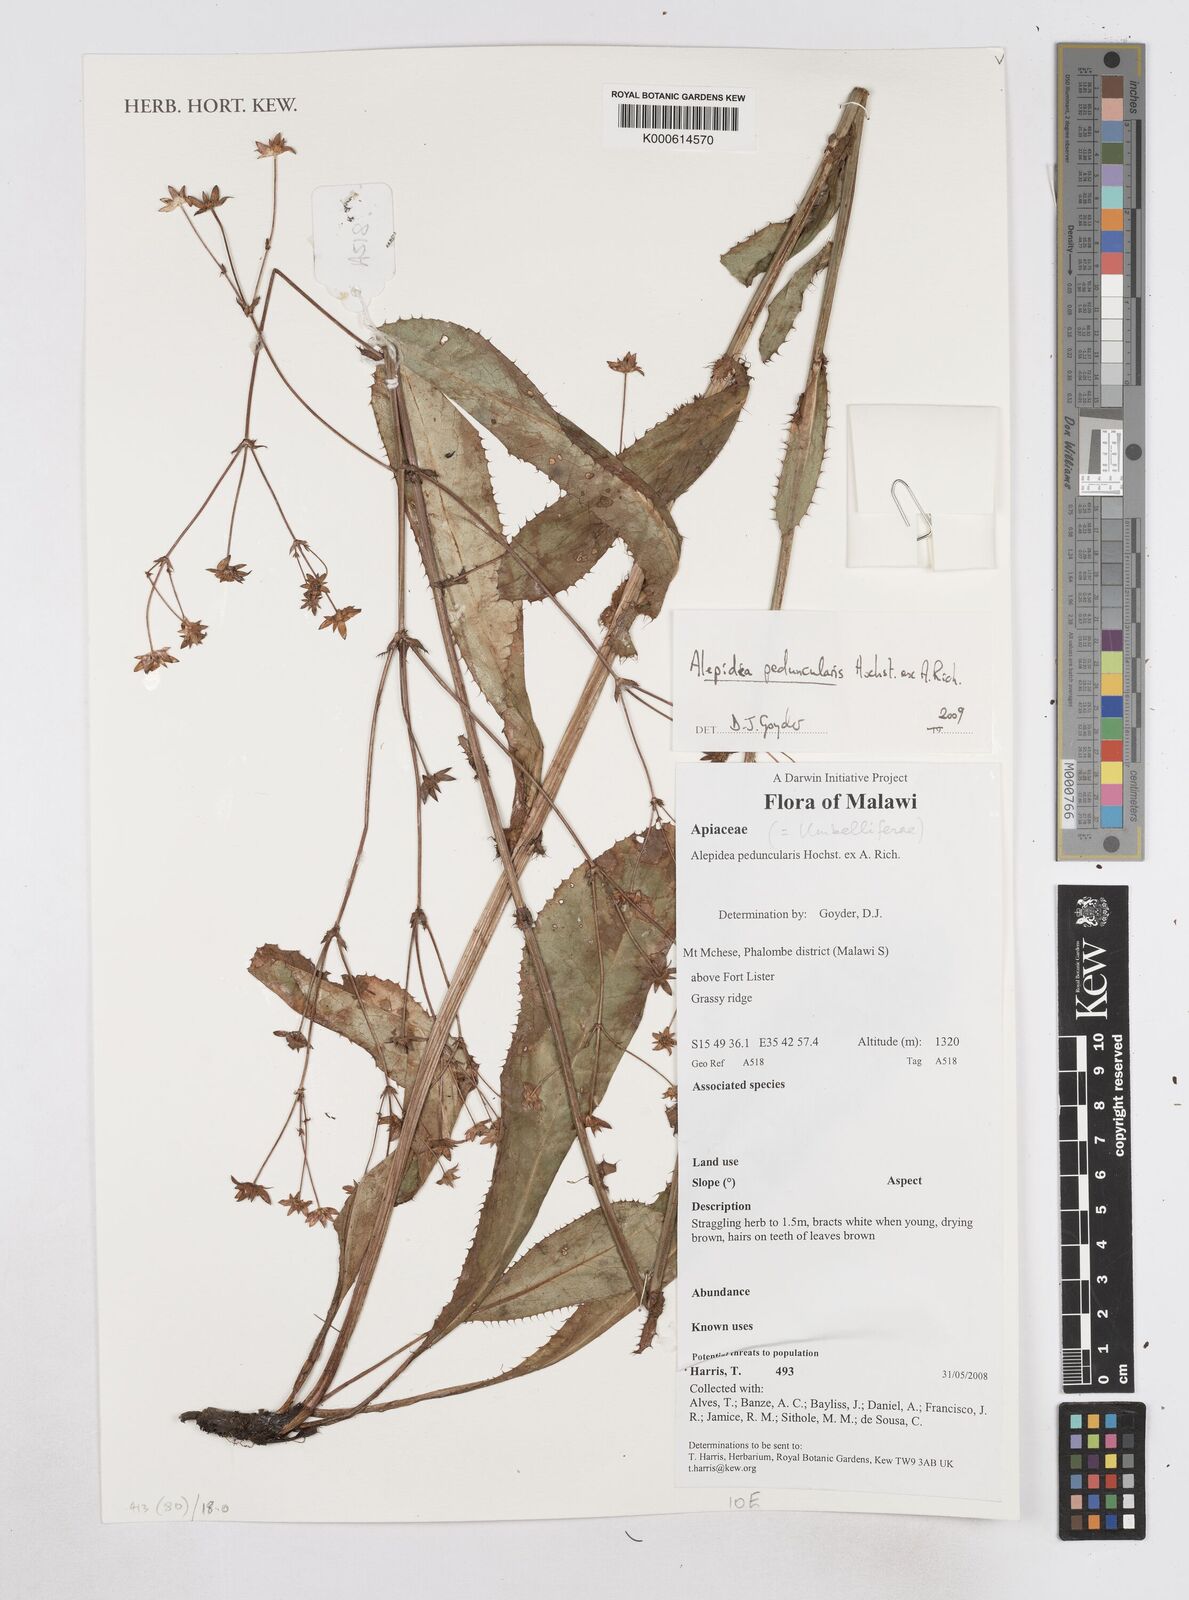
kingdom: Plantae
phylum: Tracheophyta
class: Magnoliopsida
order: Apiales
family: Apiaceae
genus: Alepidea
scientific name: Alepidea peduncularis
